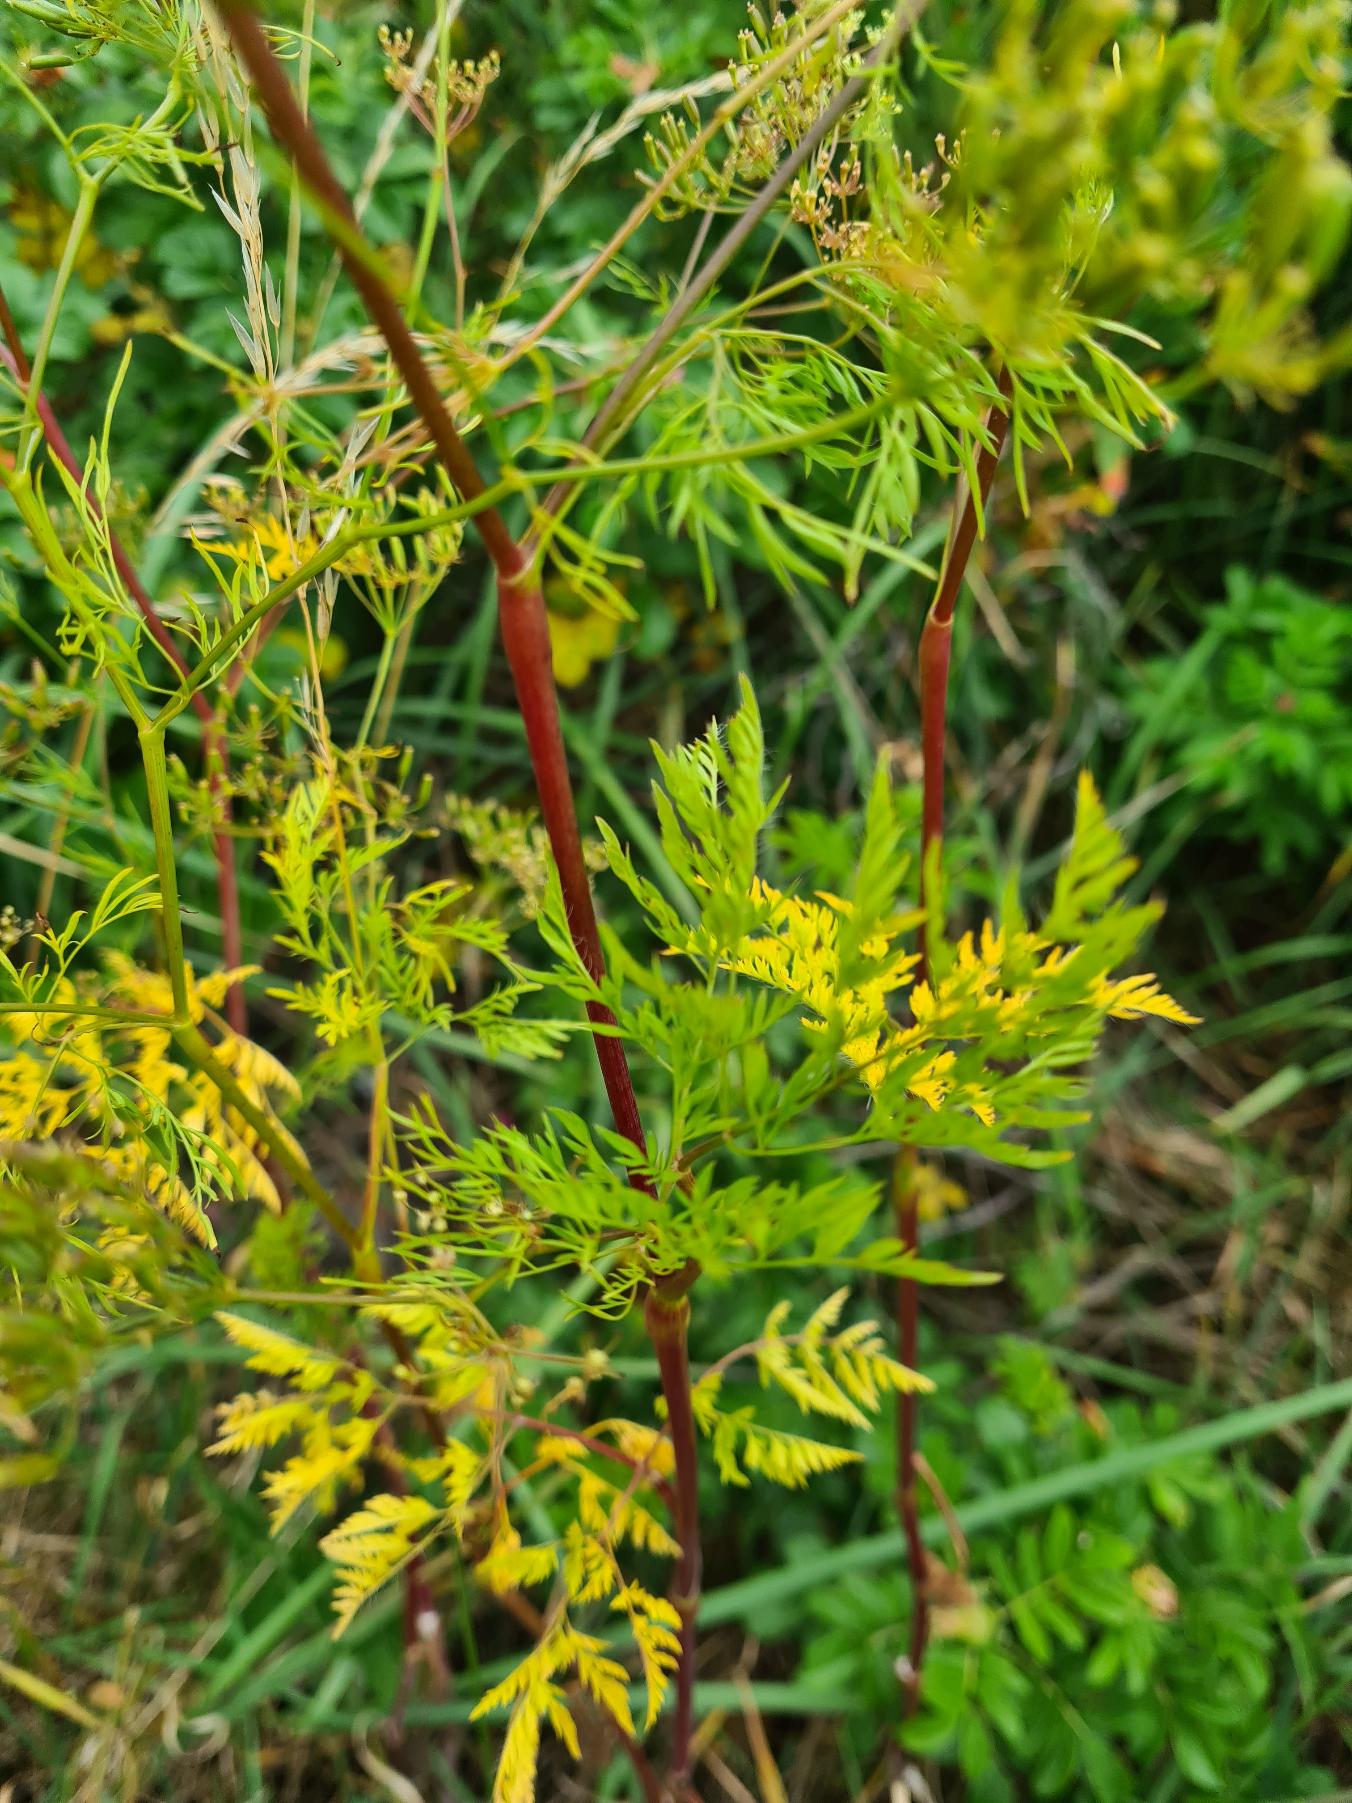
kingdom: Plantae
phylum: Tracheophyta
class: Magnoliopsida
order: Apiales
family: Apiaceae
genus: Chaerophyllum
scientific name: Chaerophyllum bulbosum
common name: Knoldet hulsvøb
